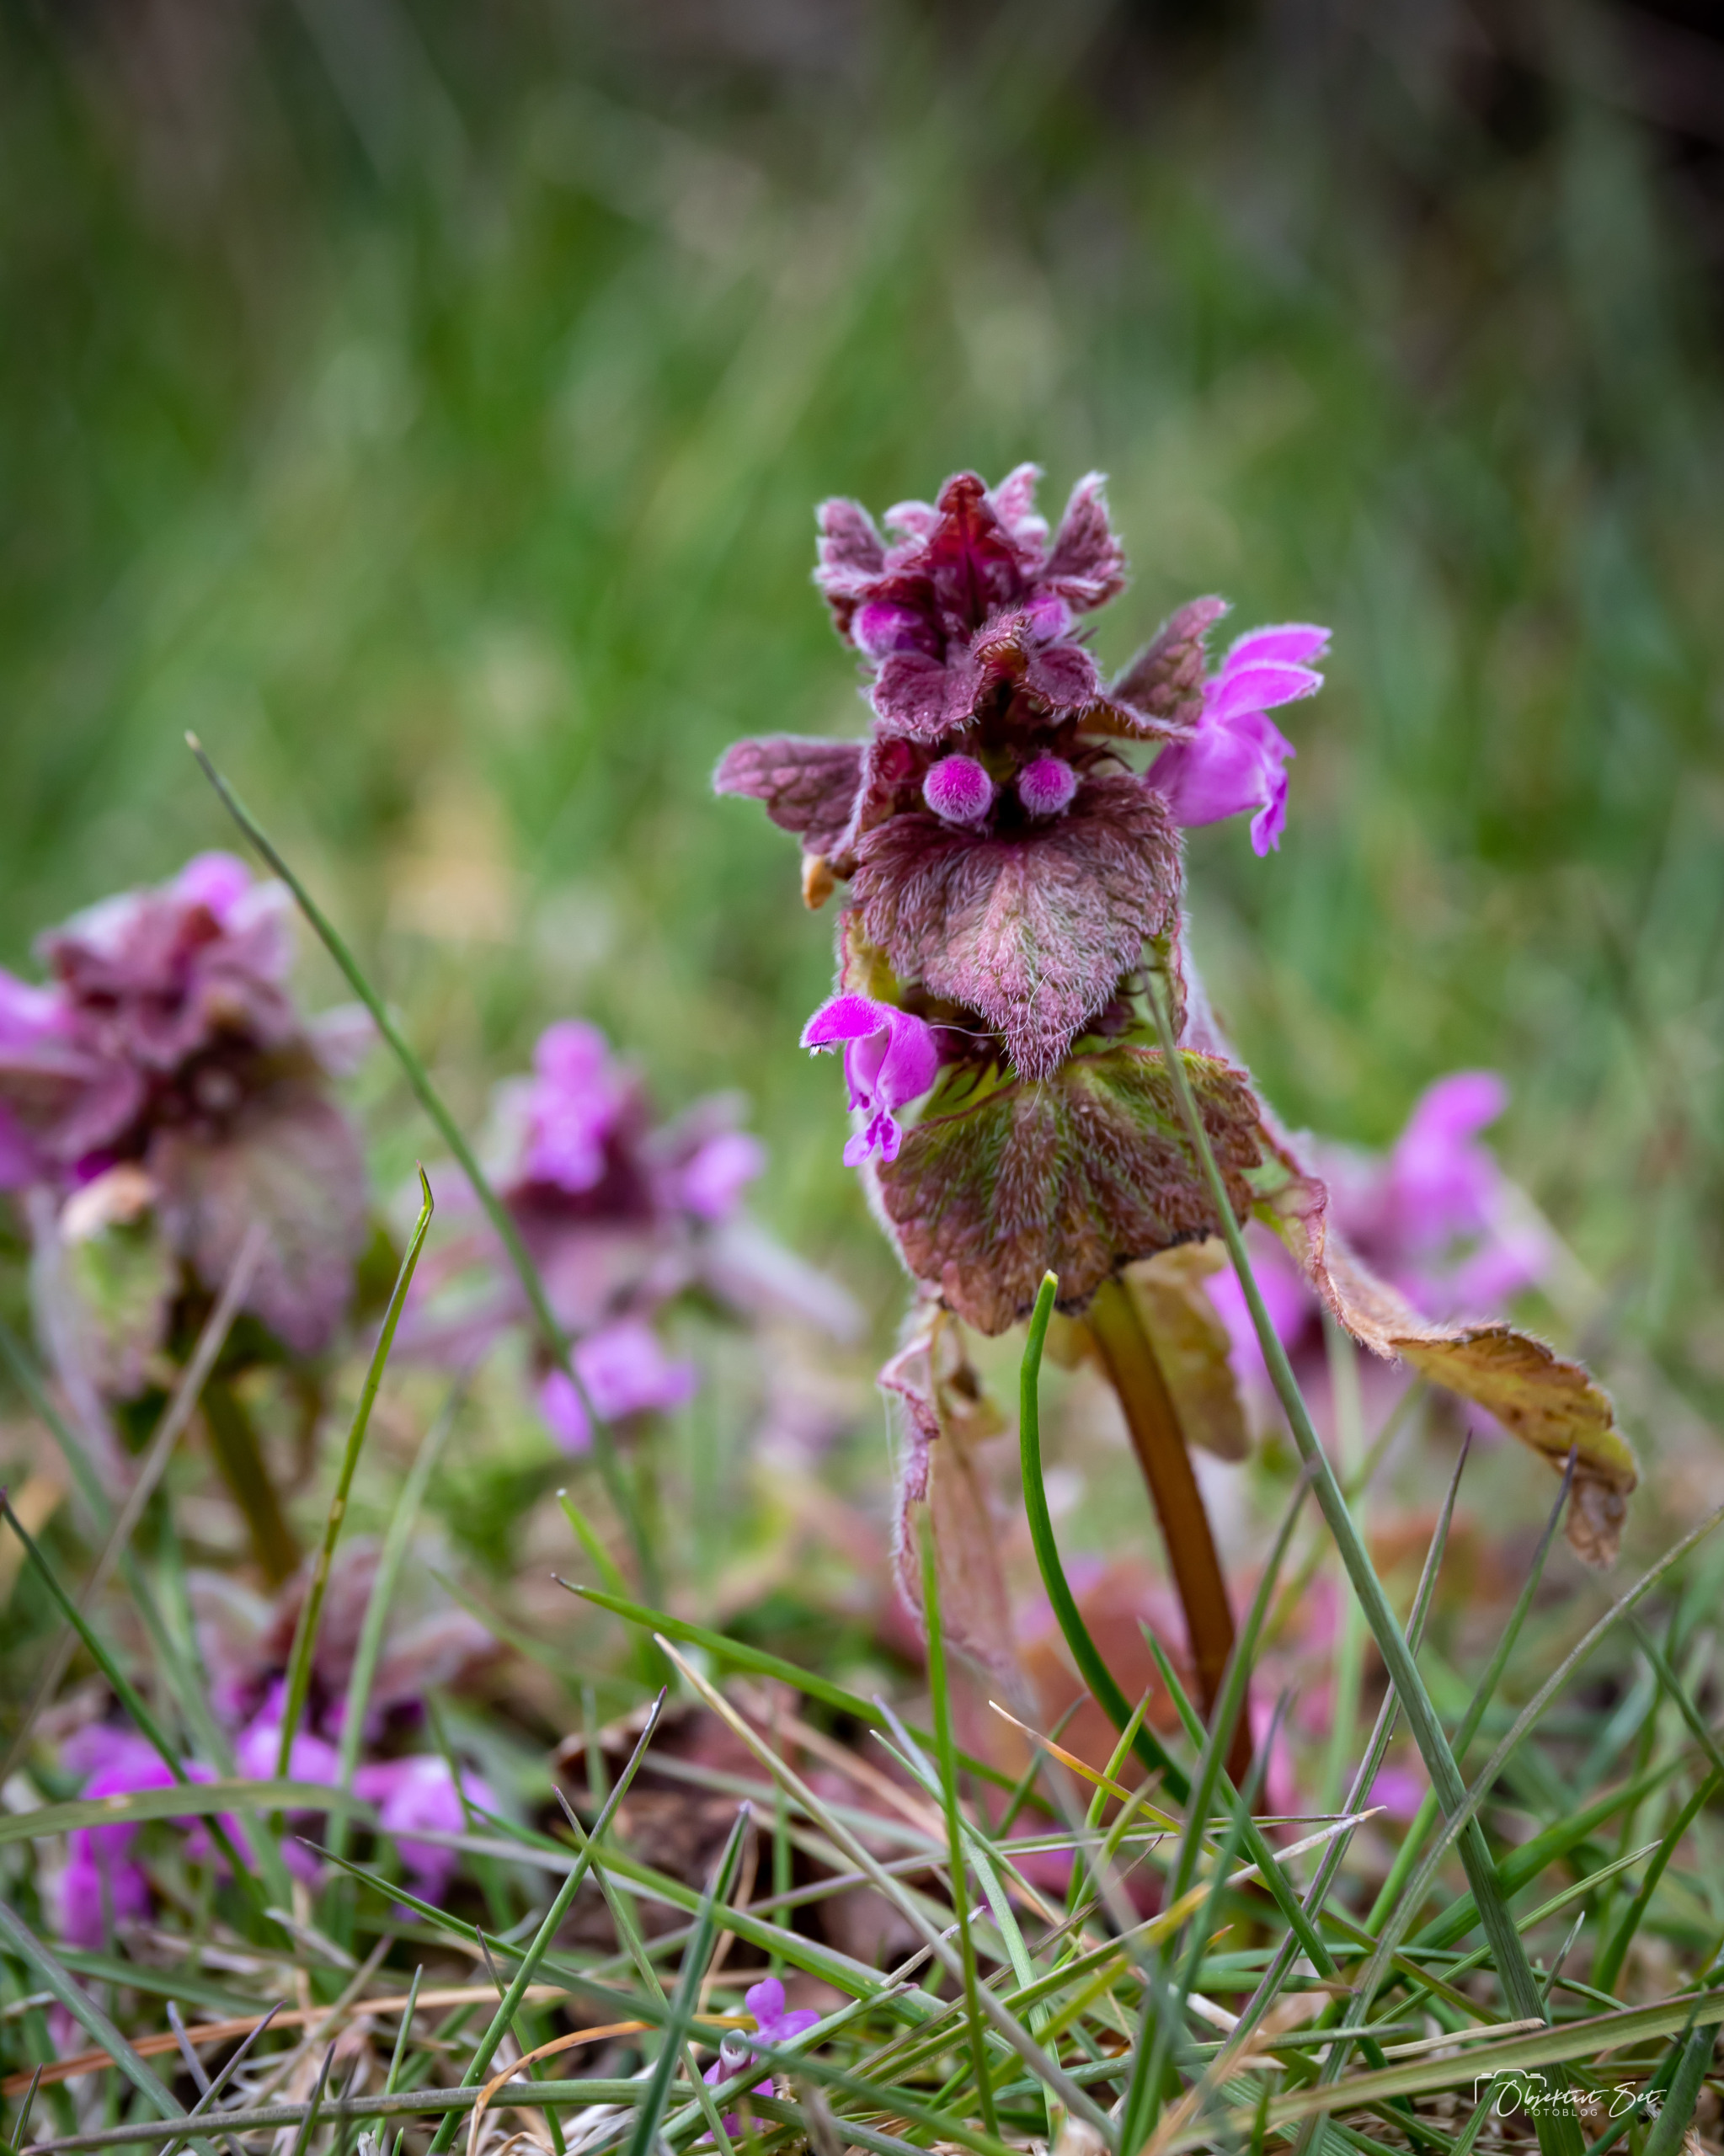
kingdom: Plantae
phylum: Tracheophyta
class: Magnoliopsida
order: Lamiales
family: Lamiaceae
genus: Lamium
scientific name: Lamium purpureum
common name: Rød tvetand
